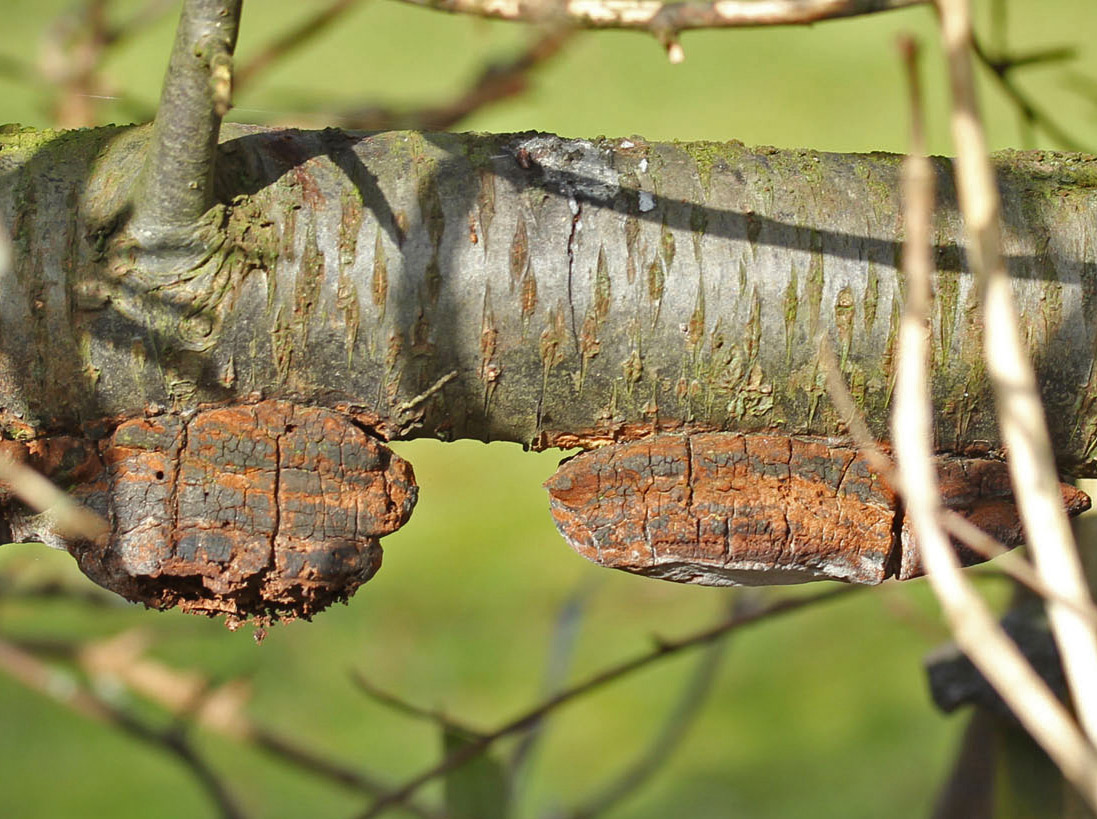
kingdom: Fungi
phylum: Basidiomycota
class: Agaricomycetes
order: Hymenochaetales
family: Hymenochaetaceae
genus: Phellinus
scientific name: Phellinus pomaceus
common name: blomme-ildporesvamp
